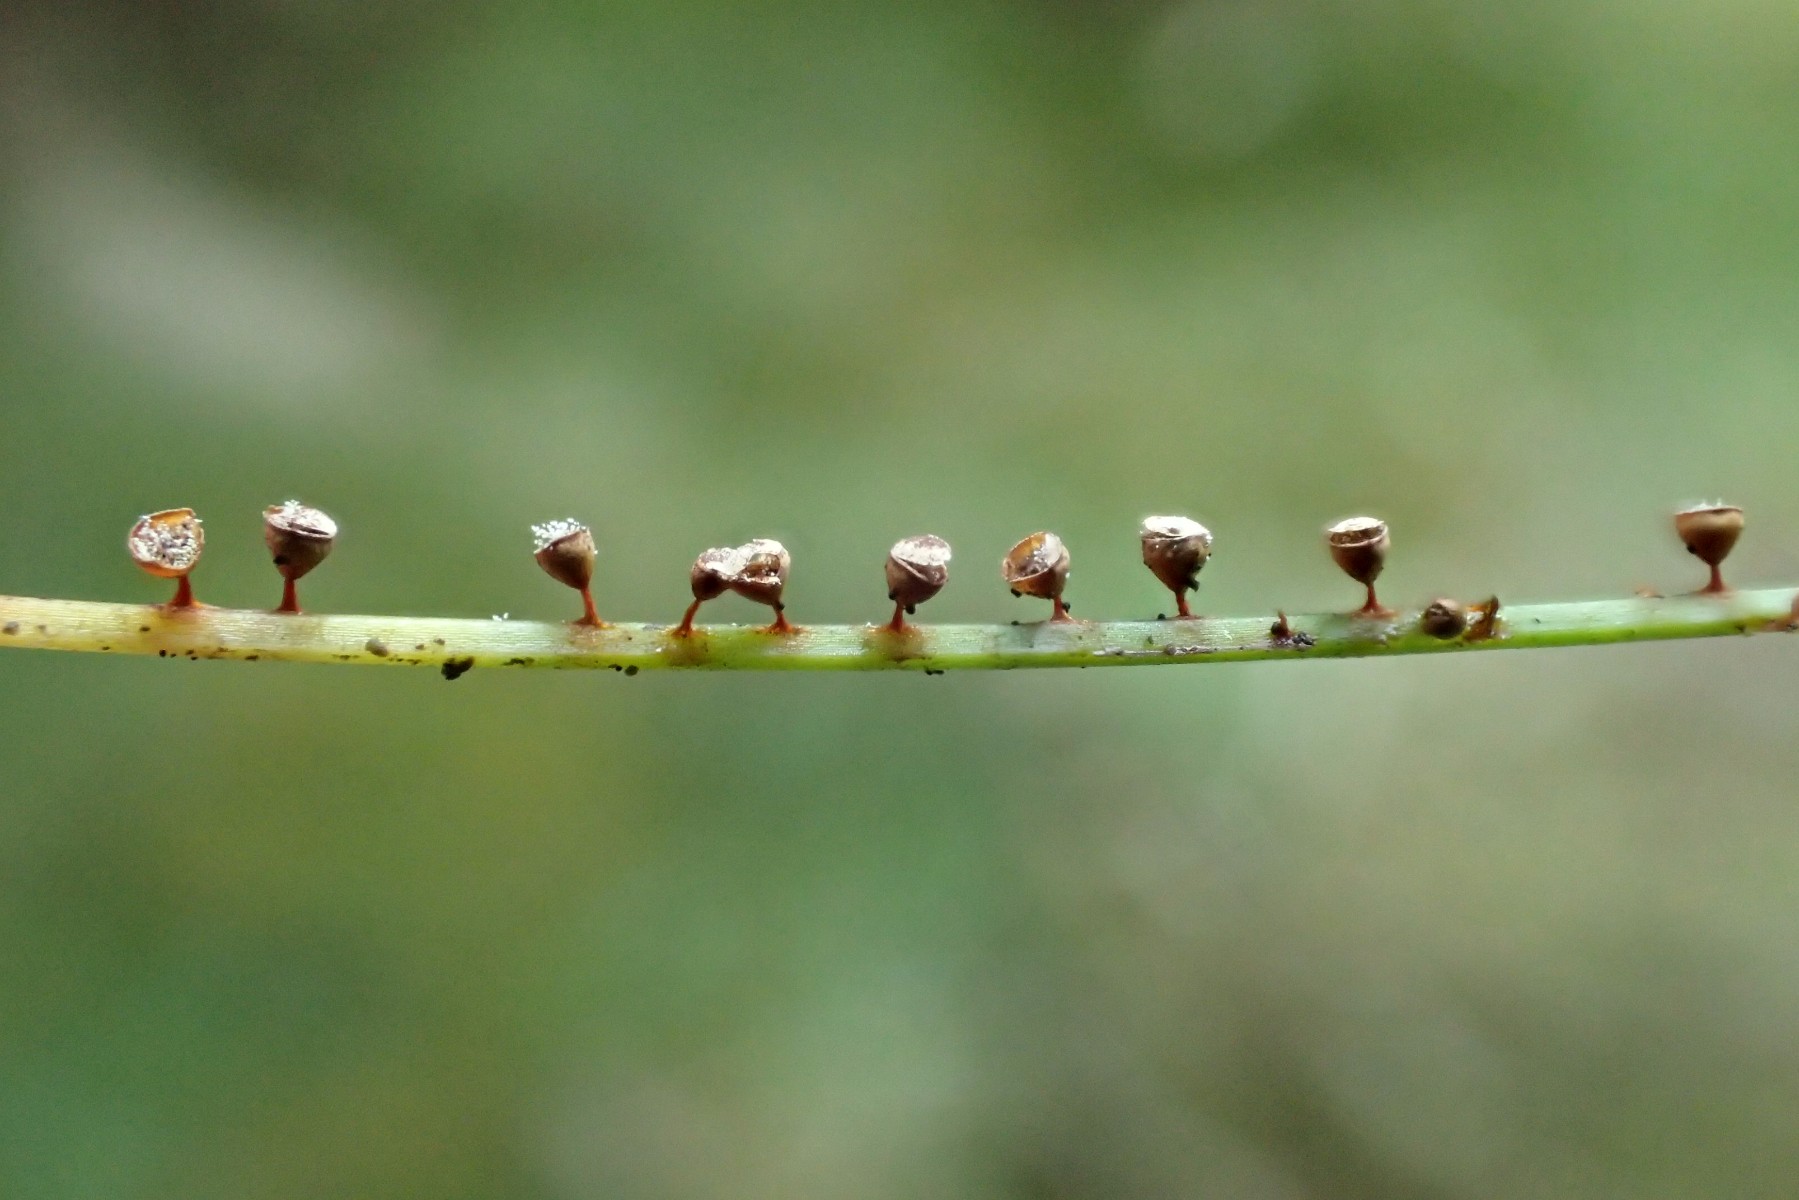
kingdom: Protozoa
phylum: Mycetozoa
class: Myxomycetes
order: Physarales
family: Physaraceae
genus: Craterium
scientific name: Craterium minutum
